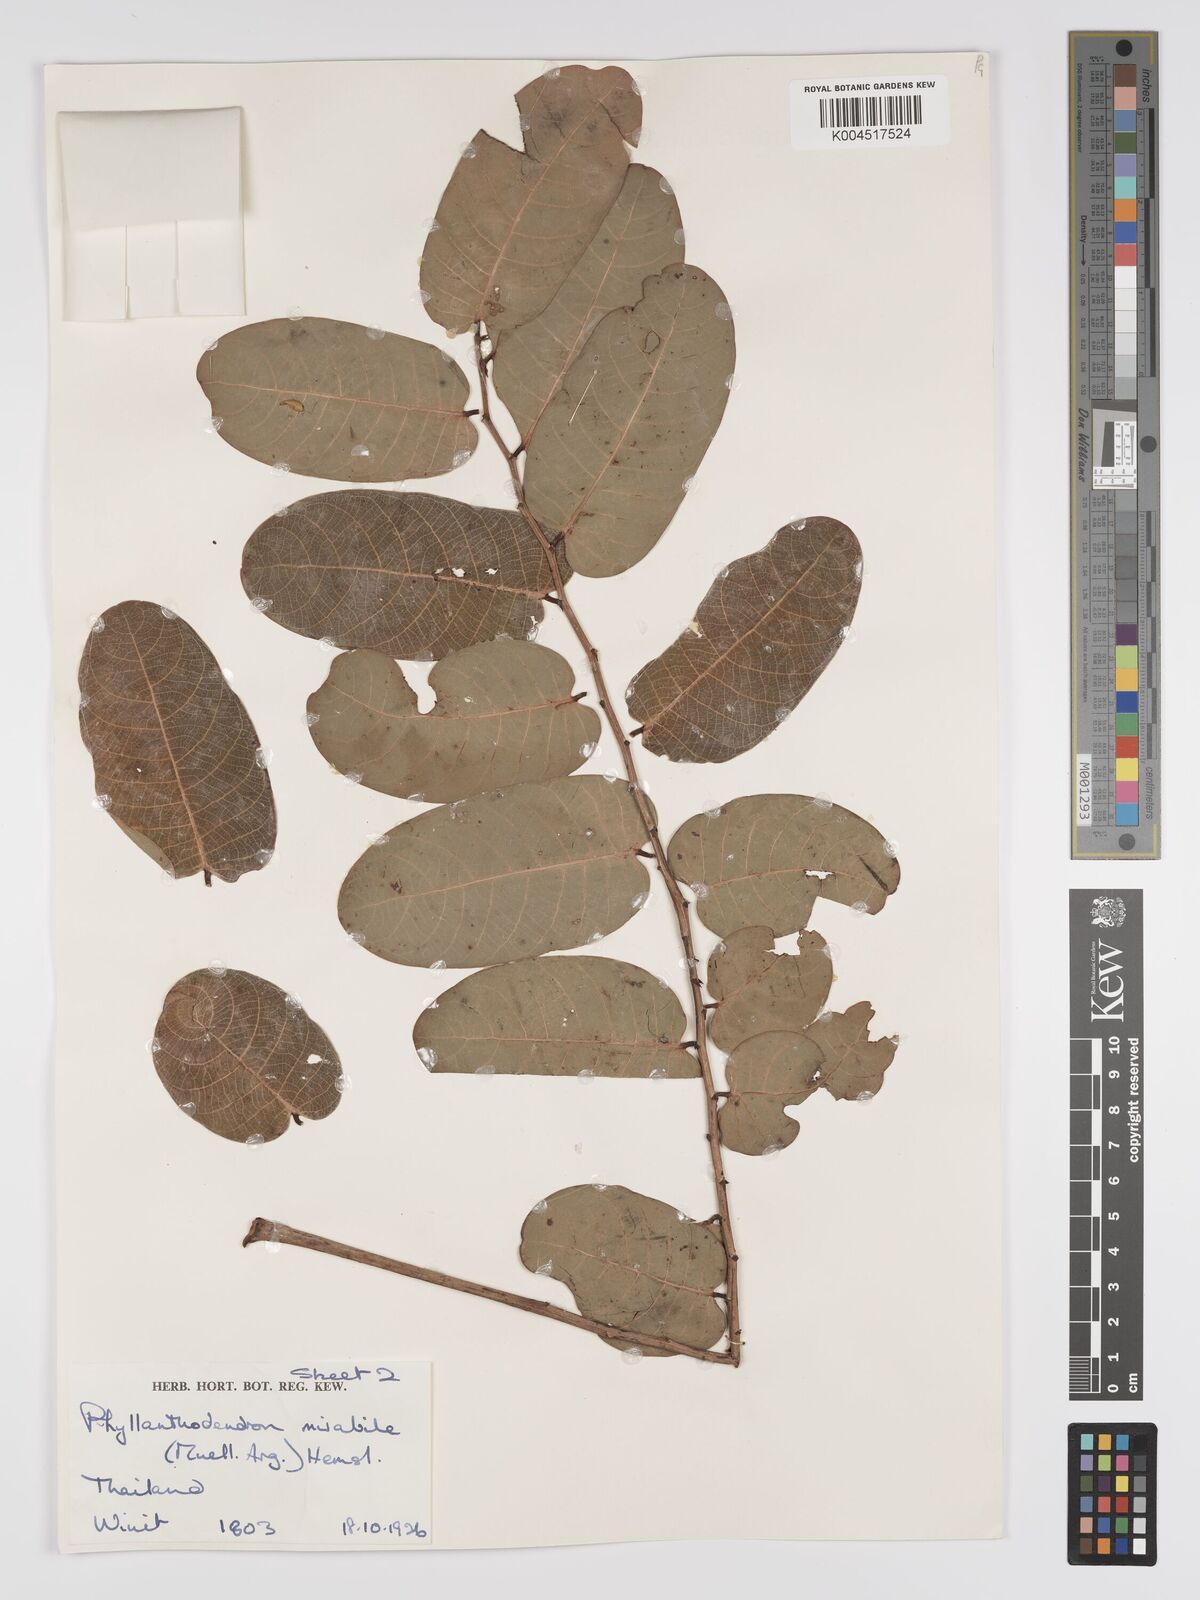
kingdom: Plantae
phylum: Tracheophyta
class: Magnoliopsida
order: Malpighiales
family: Phyllanthaceae
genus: Phyllanthus
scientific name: Phyllanthus mirabilis
